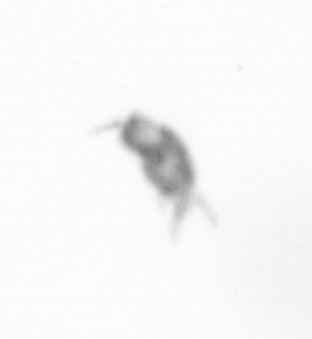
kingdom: Animalia
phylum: Arthropoda
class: Copepoda
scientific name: Copepoda
